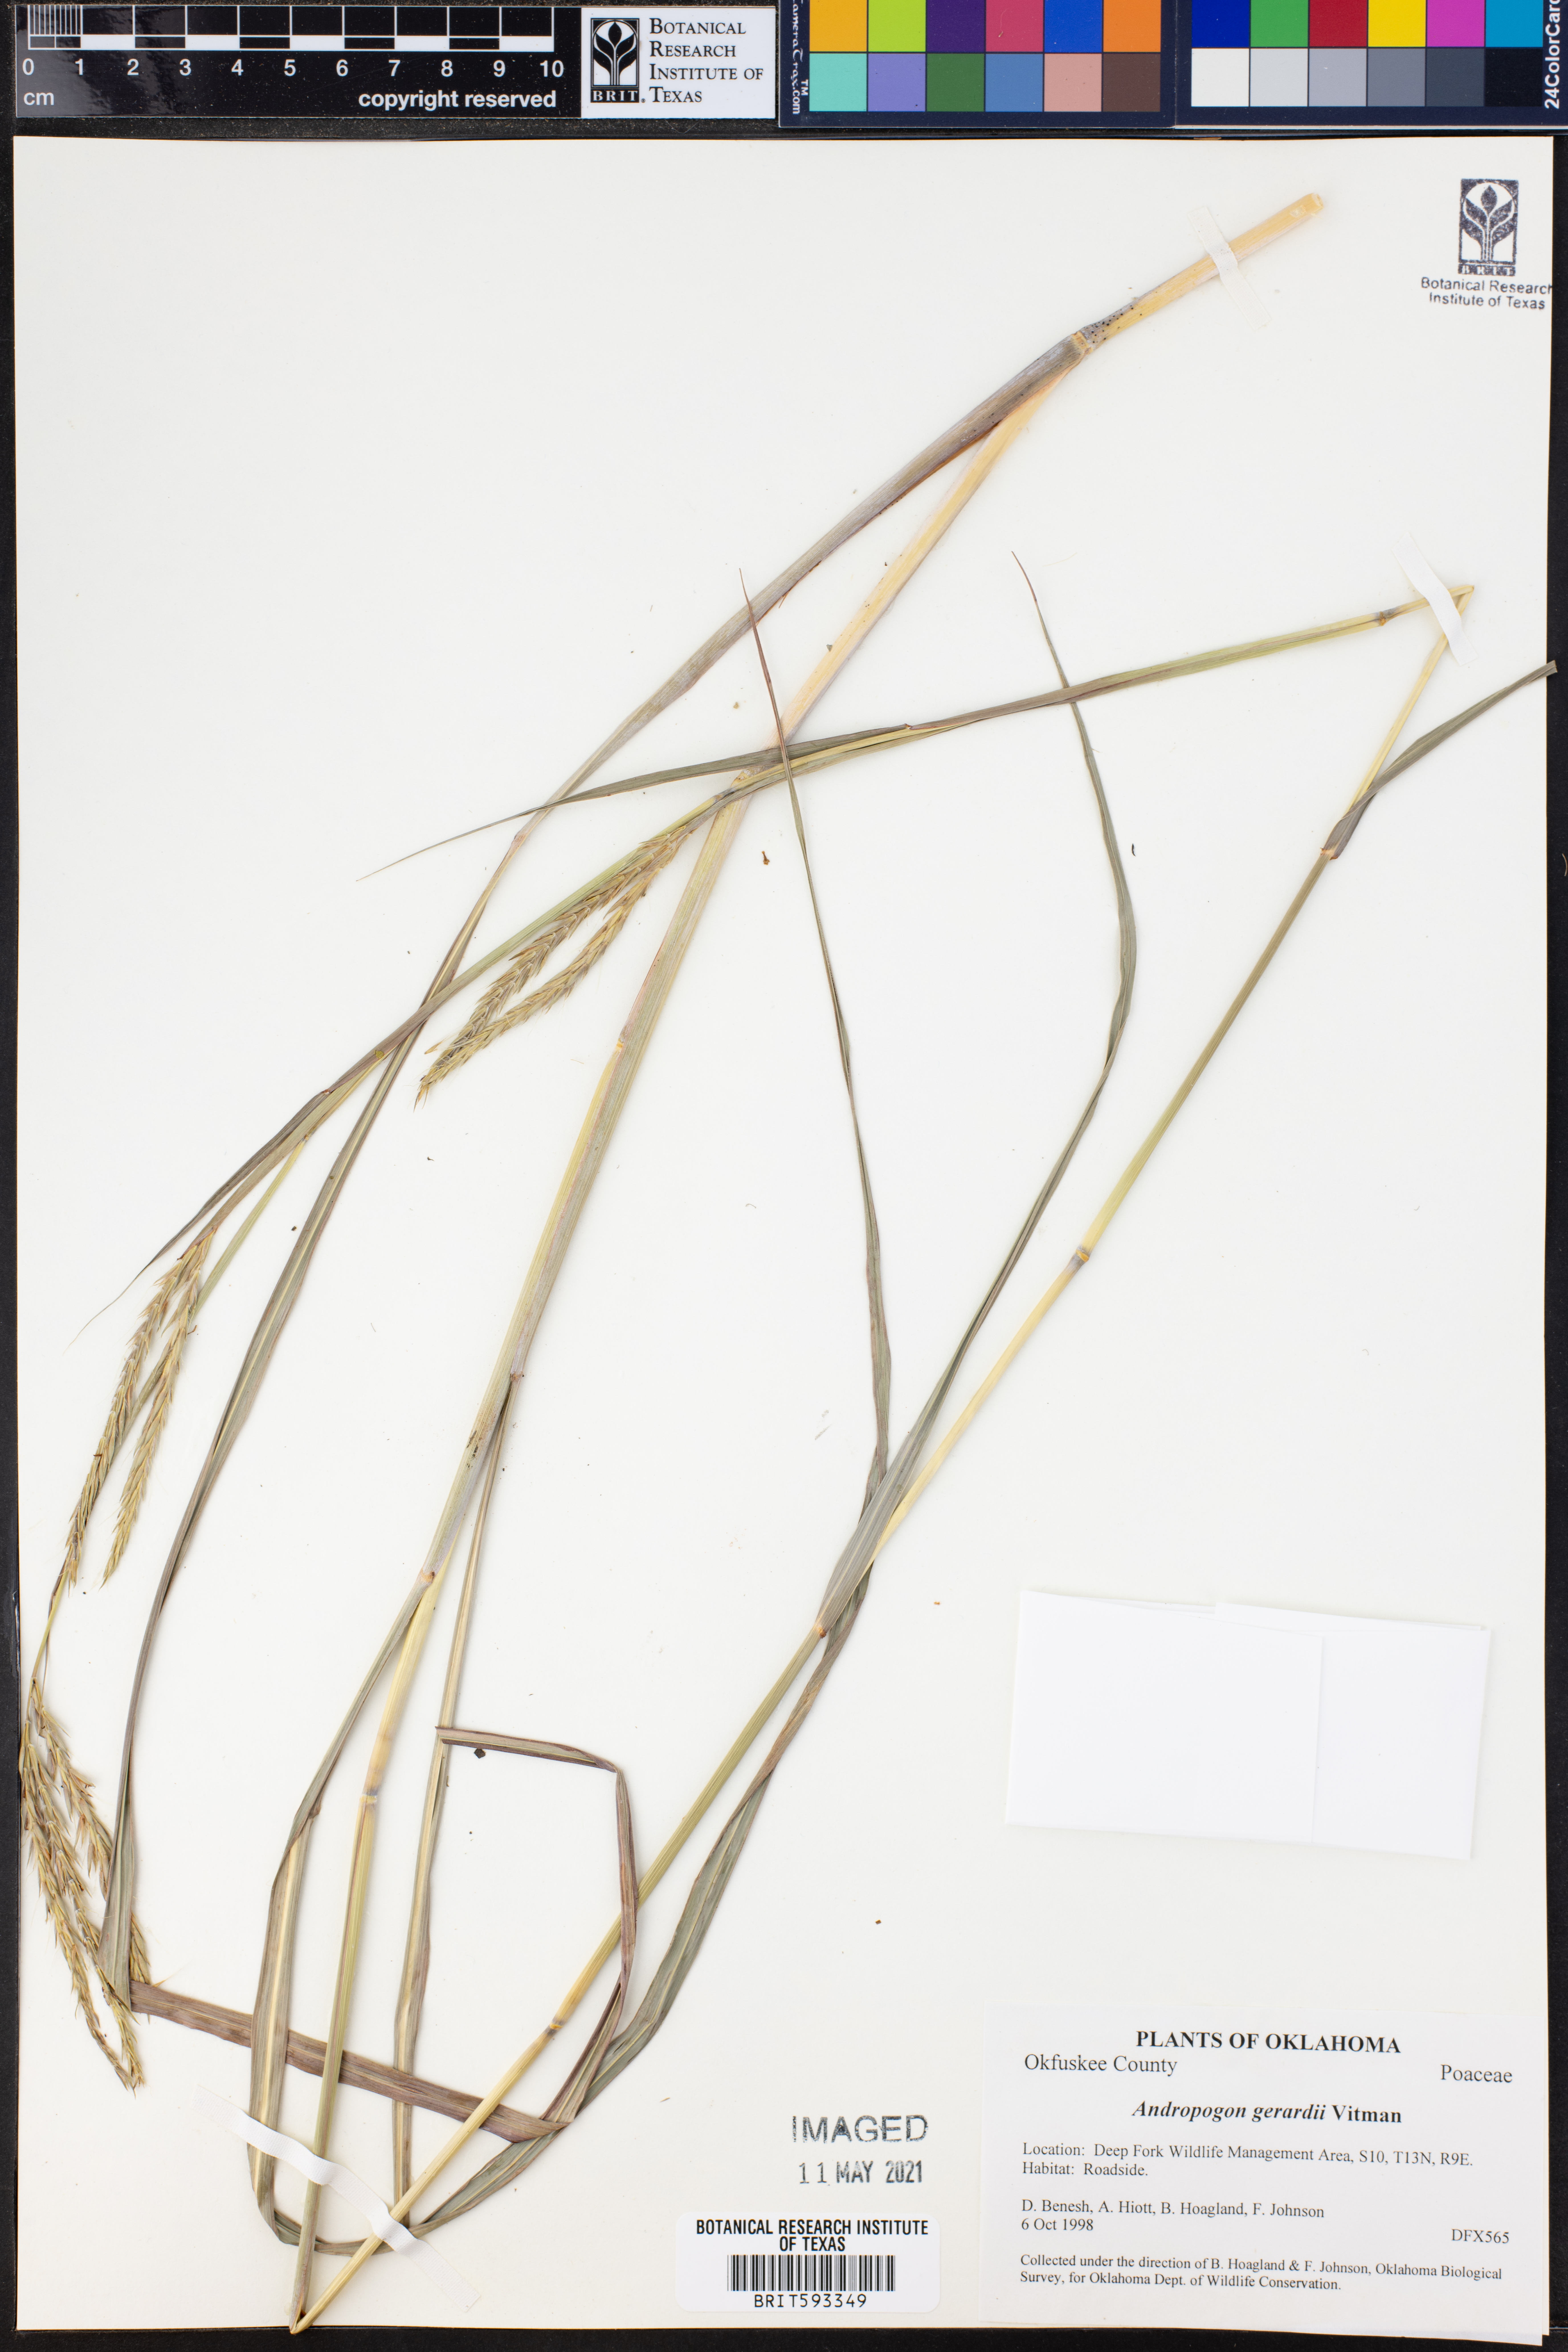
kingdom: Plantae
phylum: Tracheophyta
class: Liliopsida
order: Poales
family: Poaceae
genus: Andropogon
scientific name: Andropogon gerardi
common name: Big bluestem
